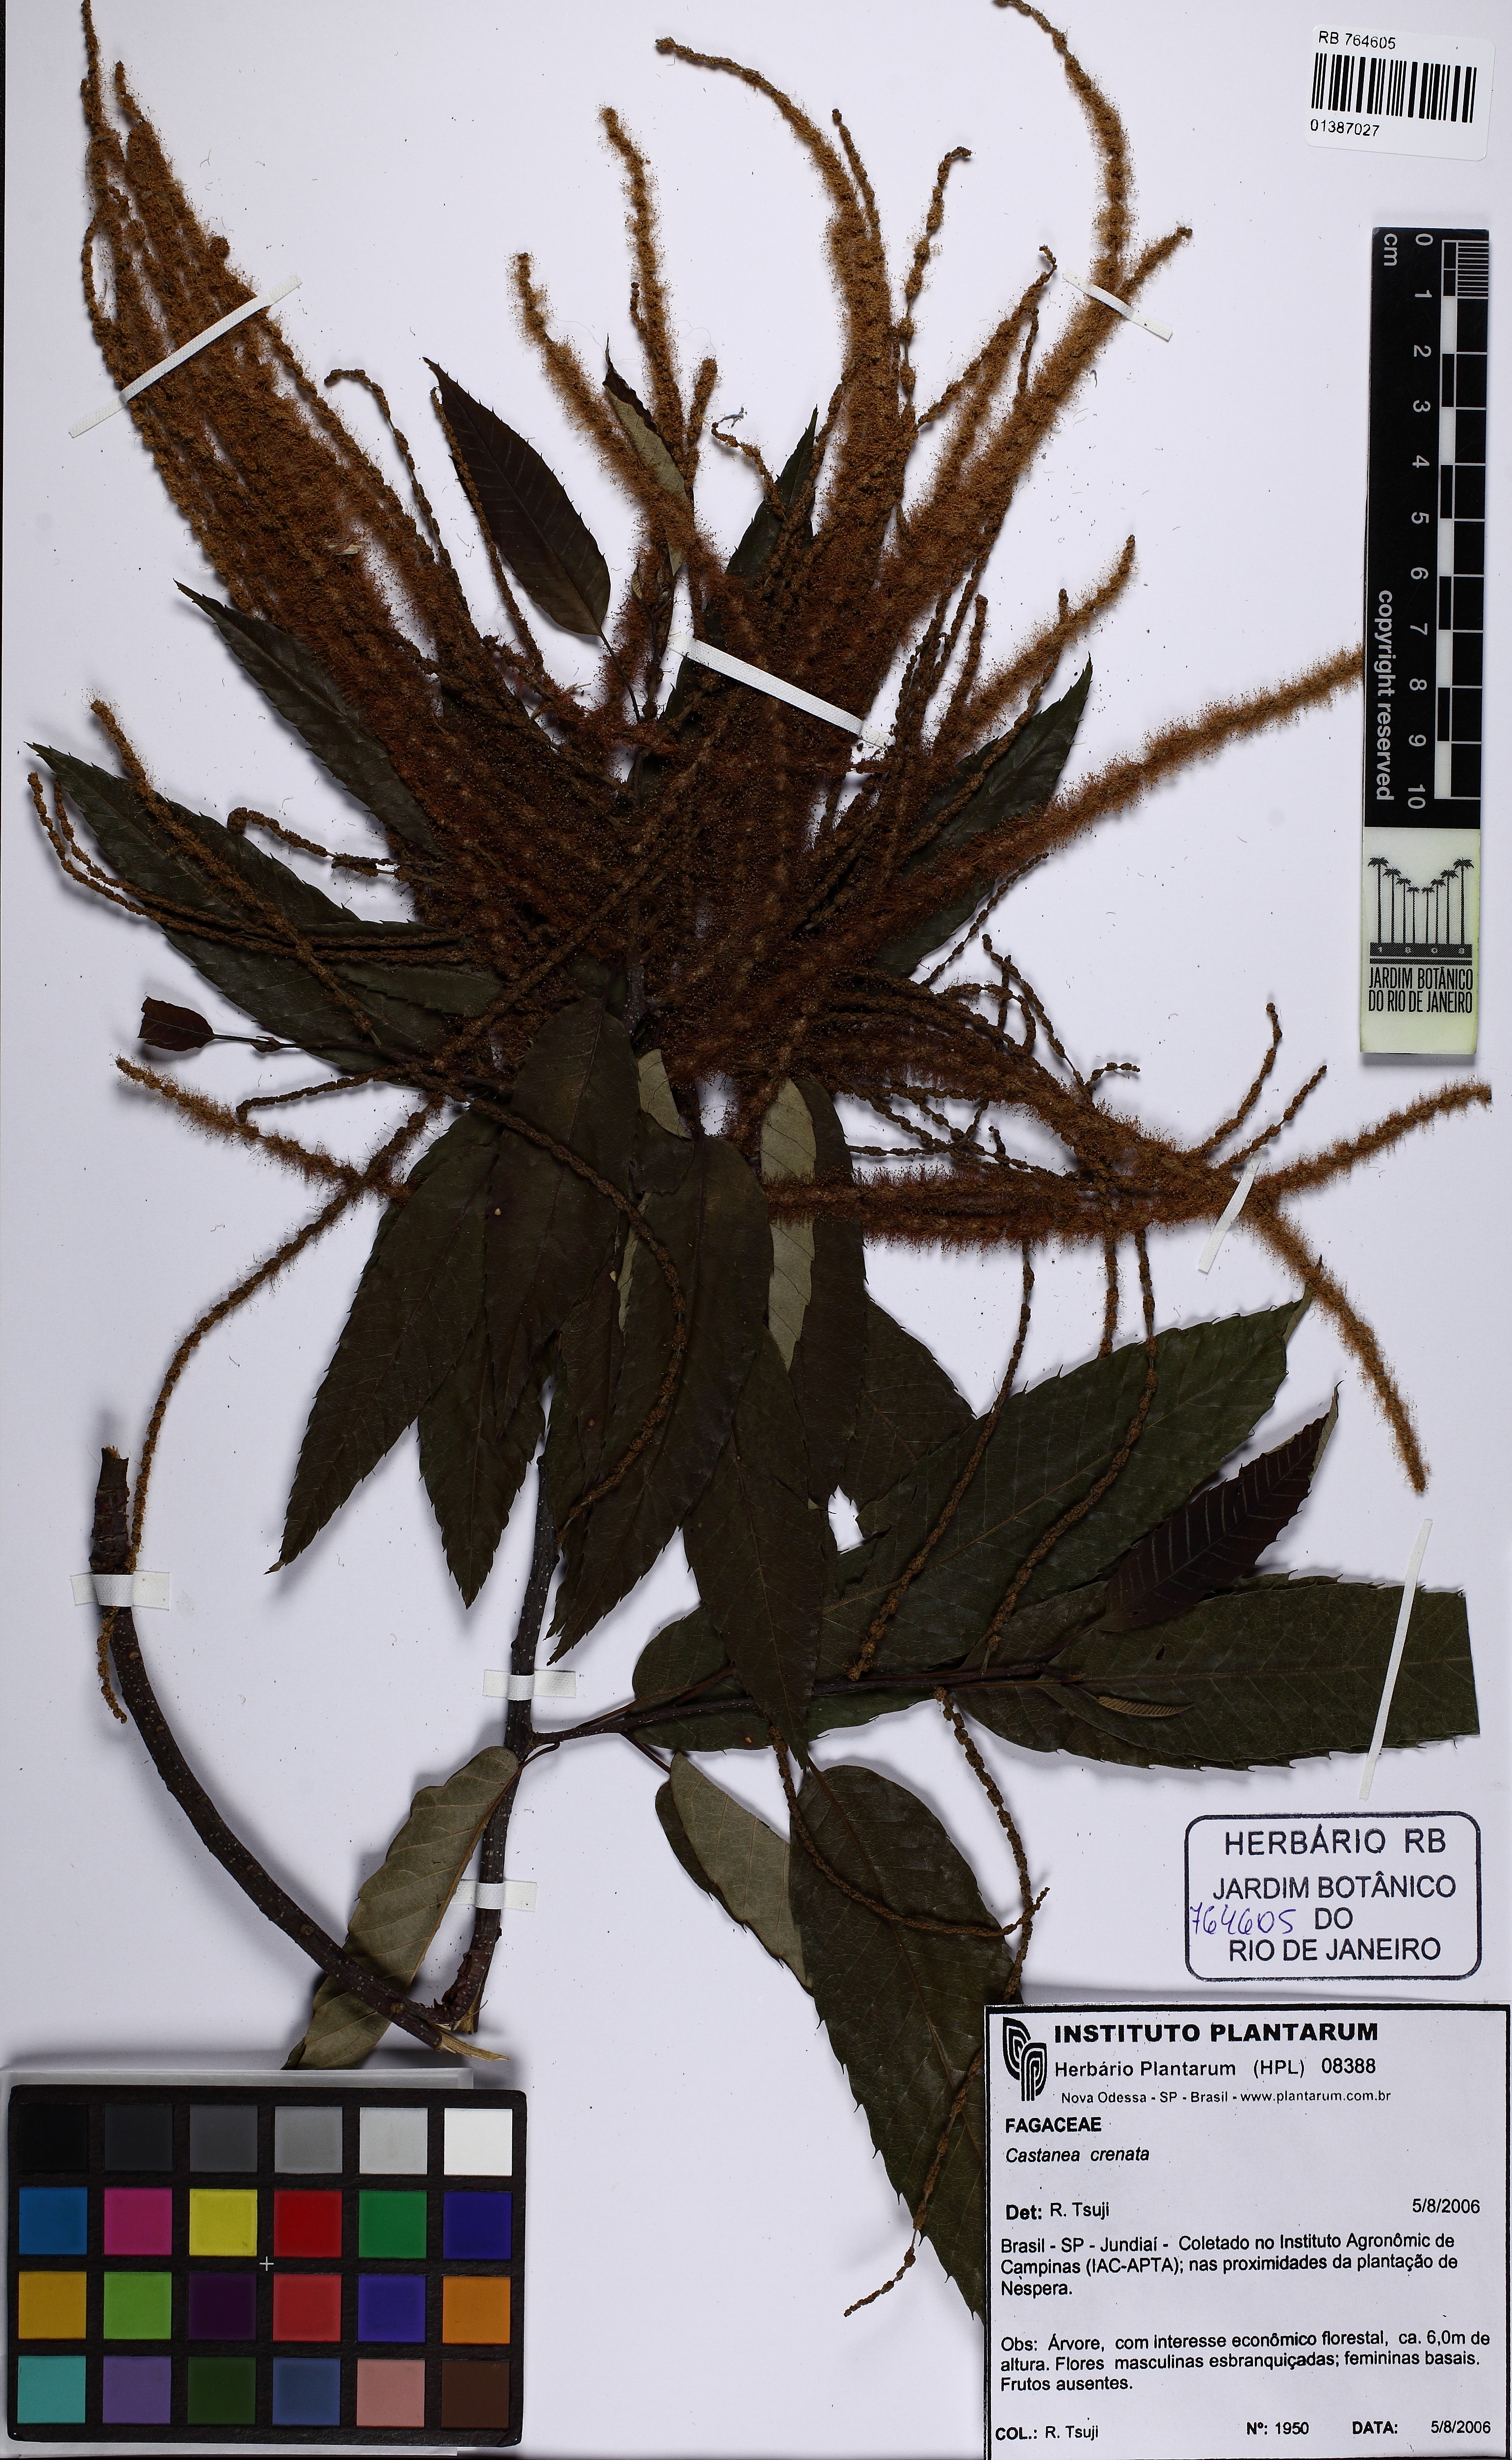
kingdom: Plantae
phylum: Tracheophyta
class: Magnoliopsida
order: Fagales
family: Fagaceae
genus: Castanea
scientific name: Castanea crenata
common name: Japanese chestnut
